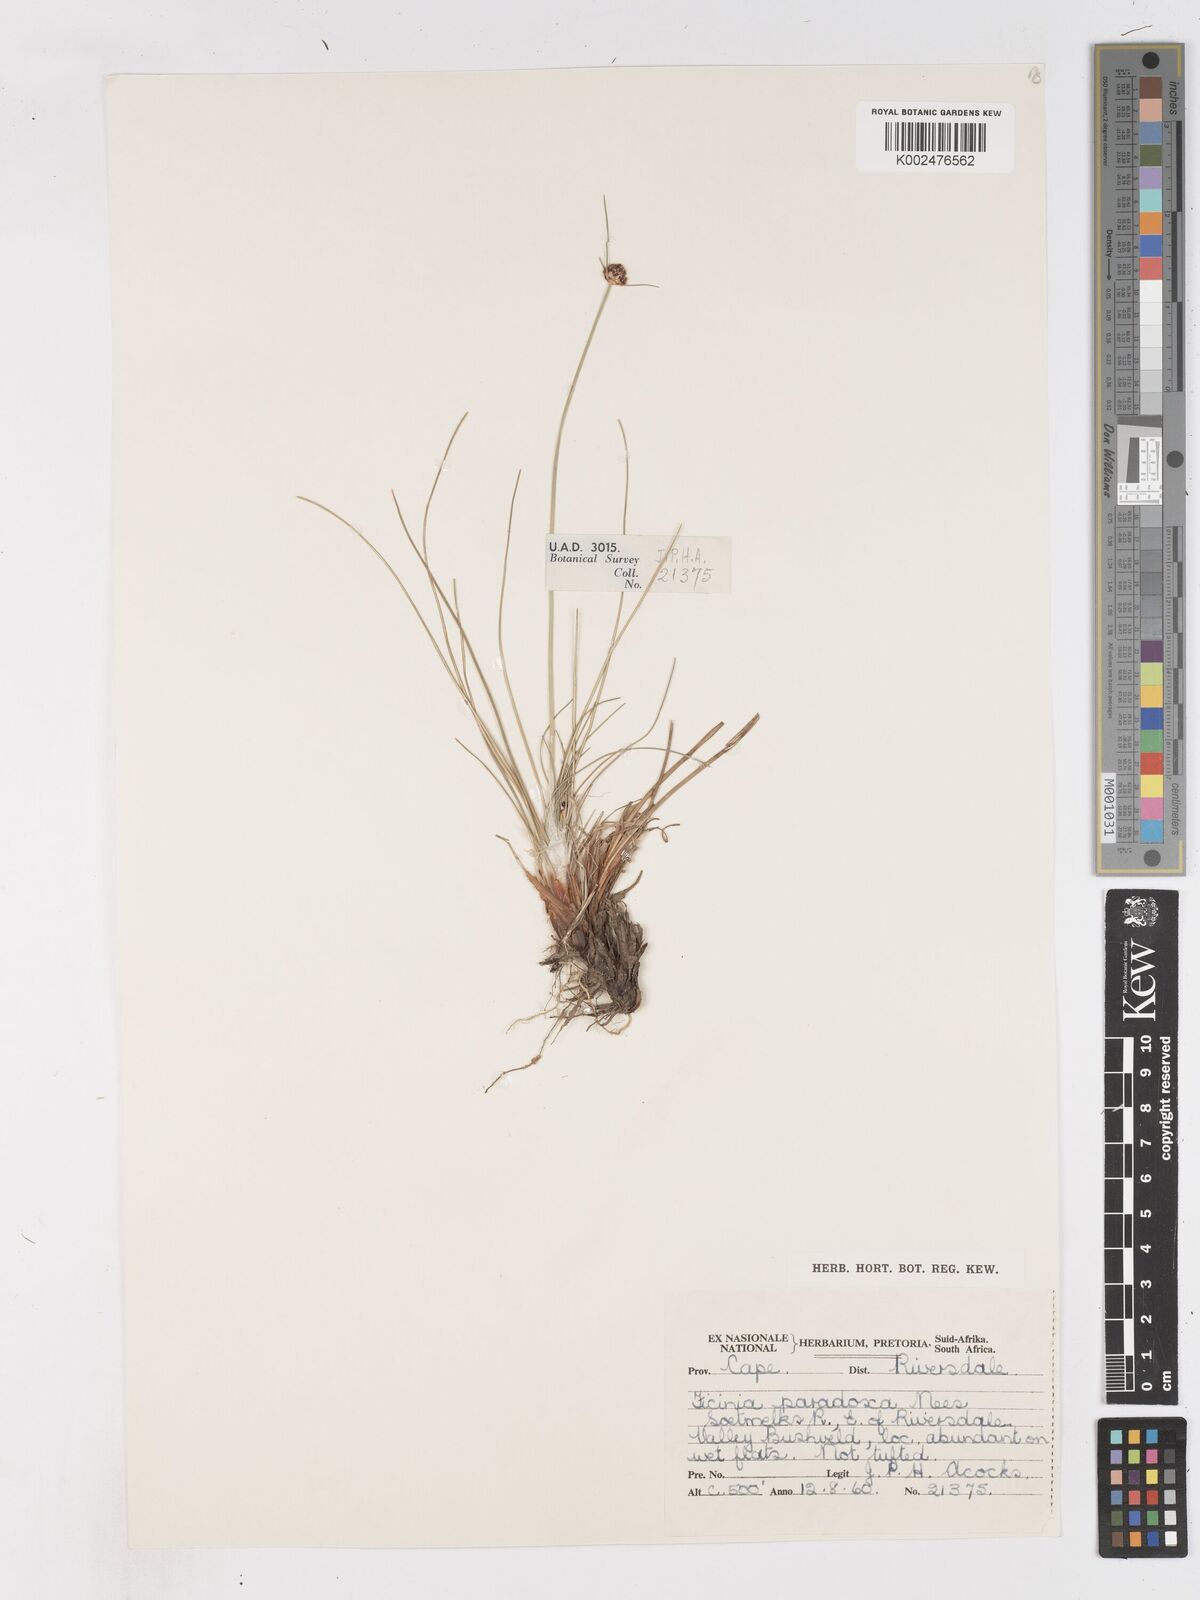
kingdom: Plantae
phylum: Tracheophyta
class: Liliopsida
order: Poales
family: Cyperaceae
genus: Ficinia
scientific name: Ficinia
